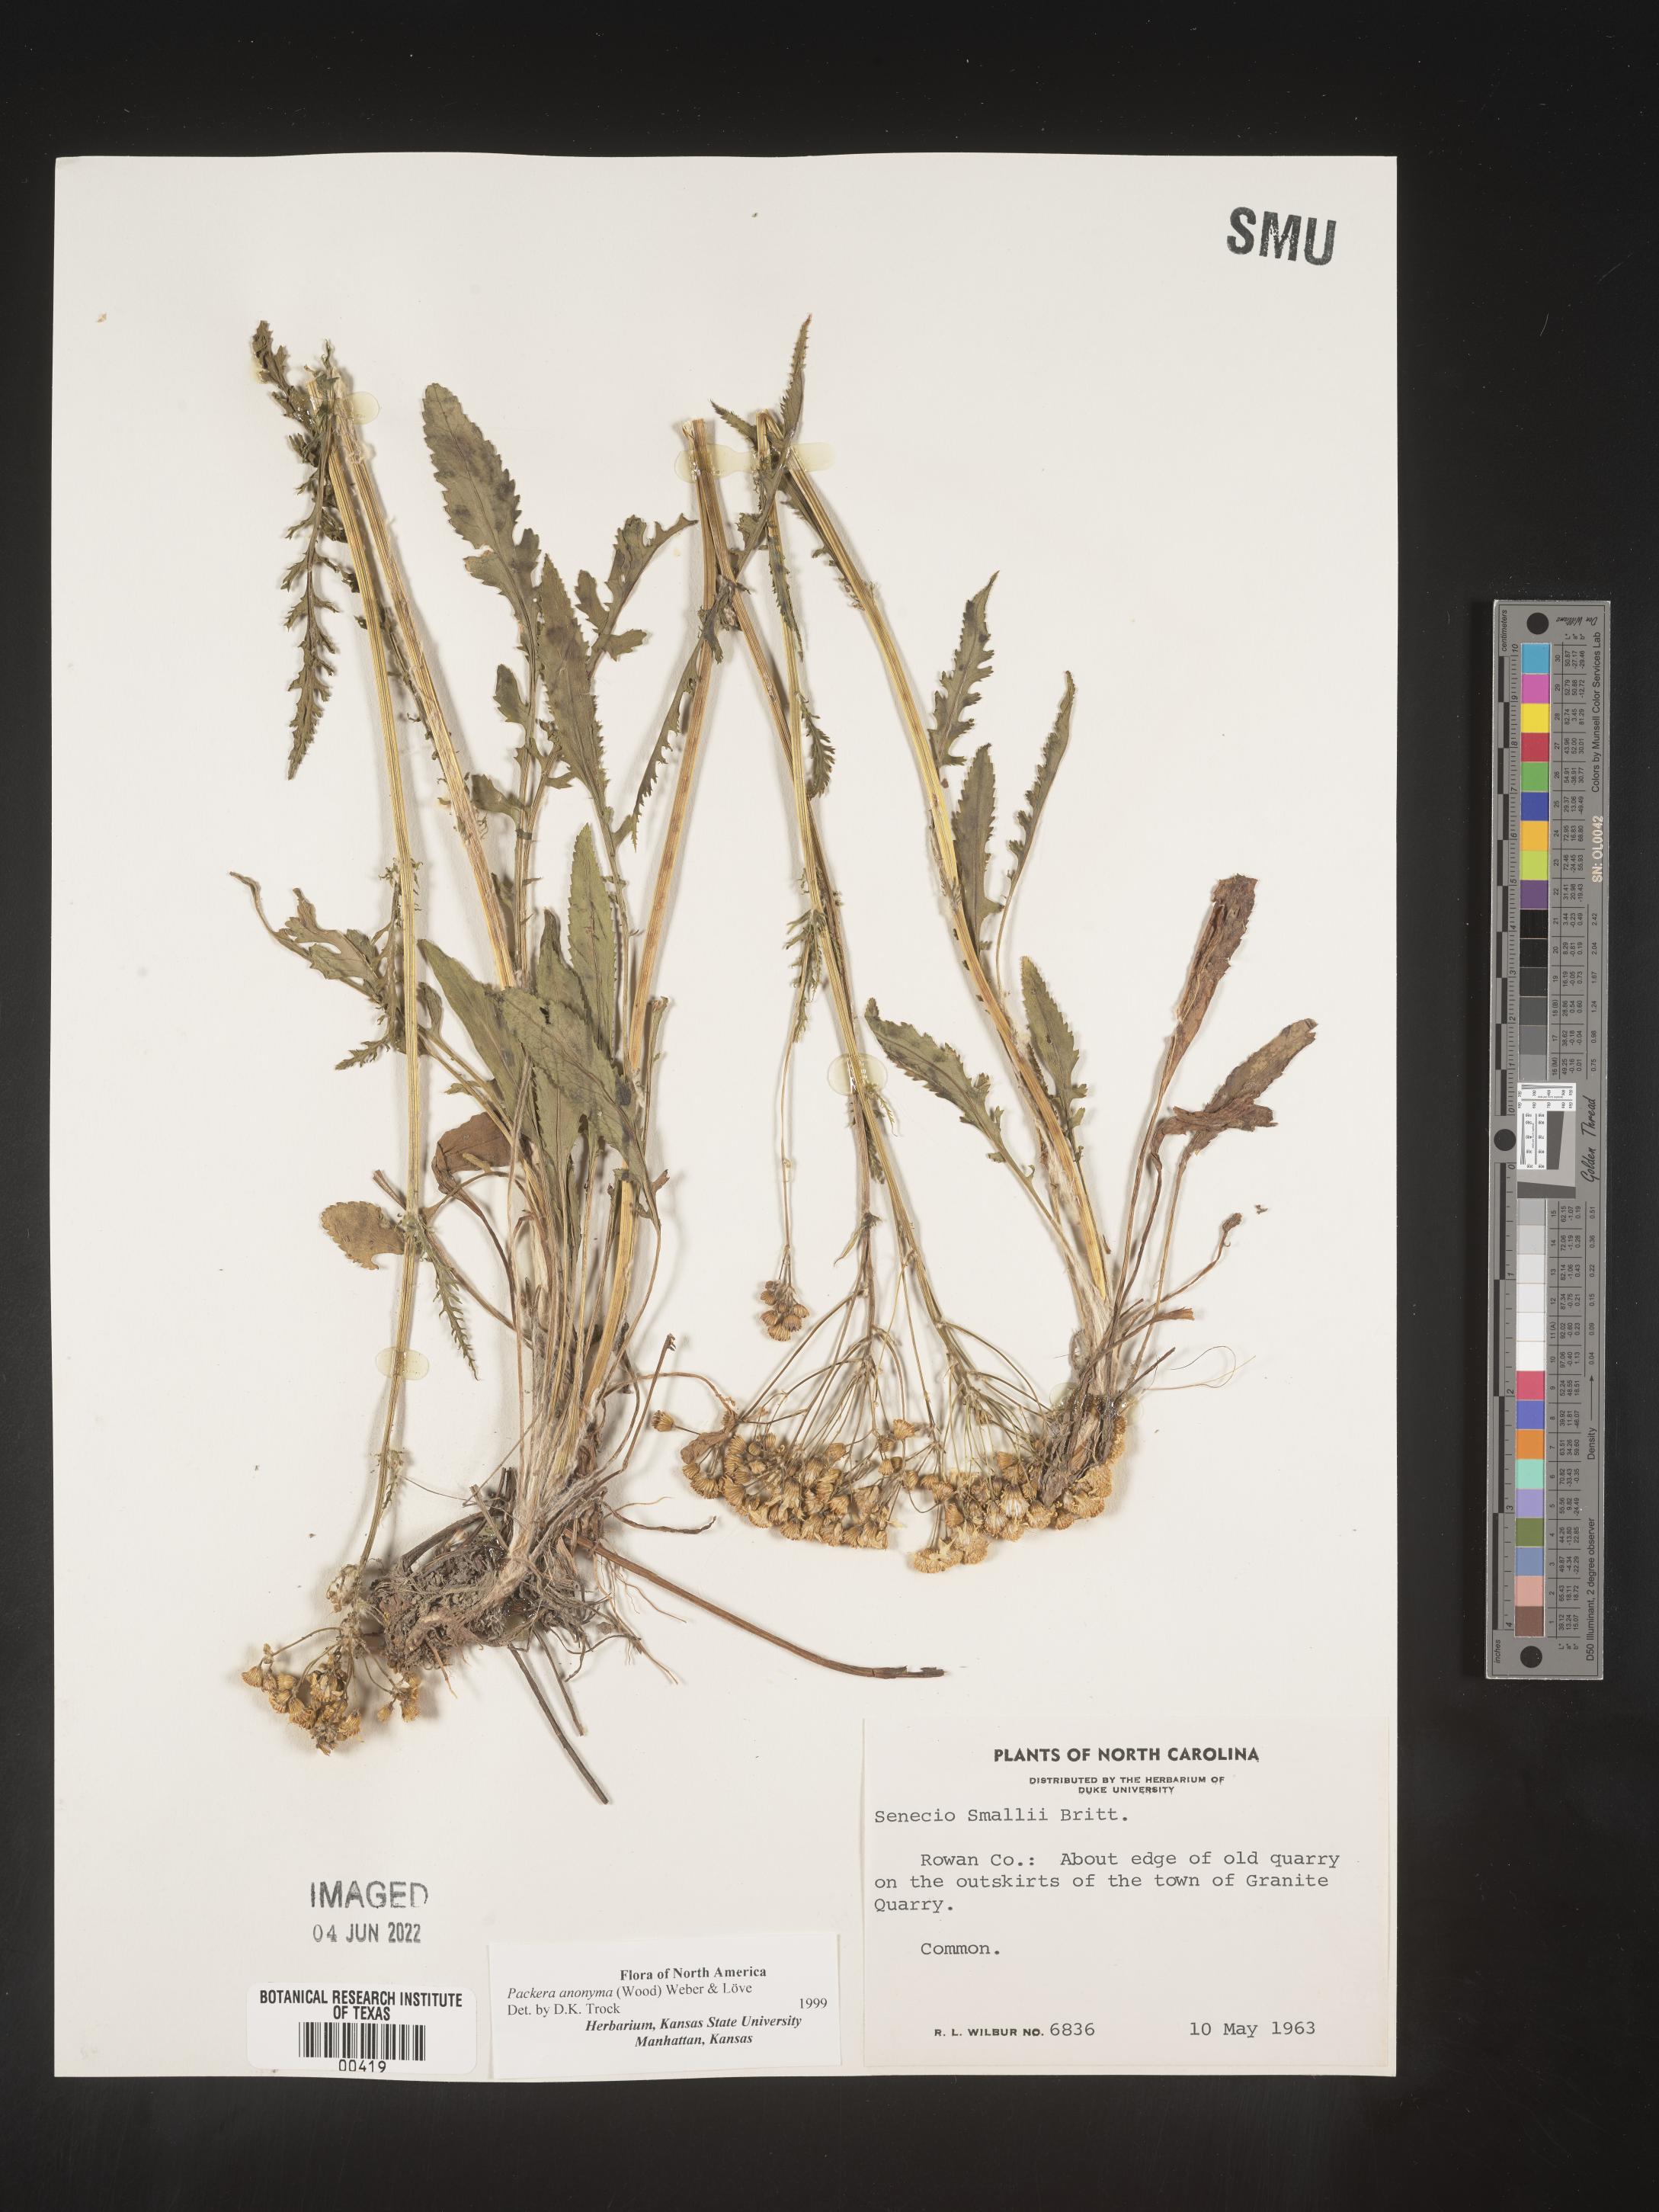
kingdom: Plantae
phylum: Tracheophyta
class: Magnoliopsida
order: Asterales
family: Asteraceae
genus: Packera
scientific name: Packera anonyma
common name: Small ragwort
